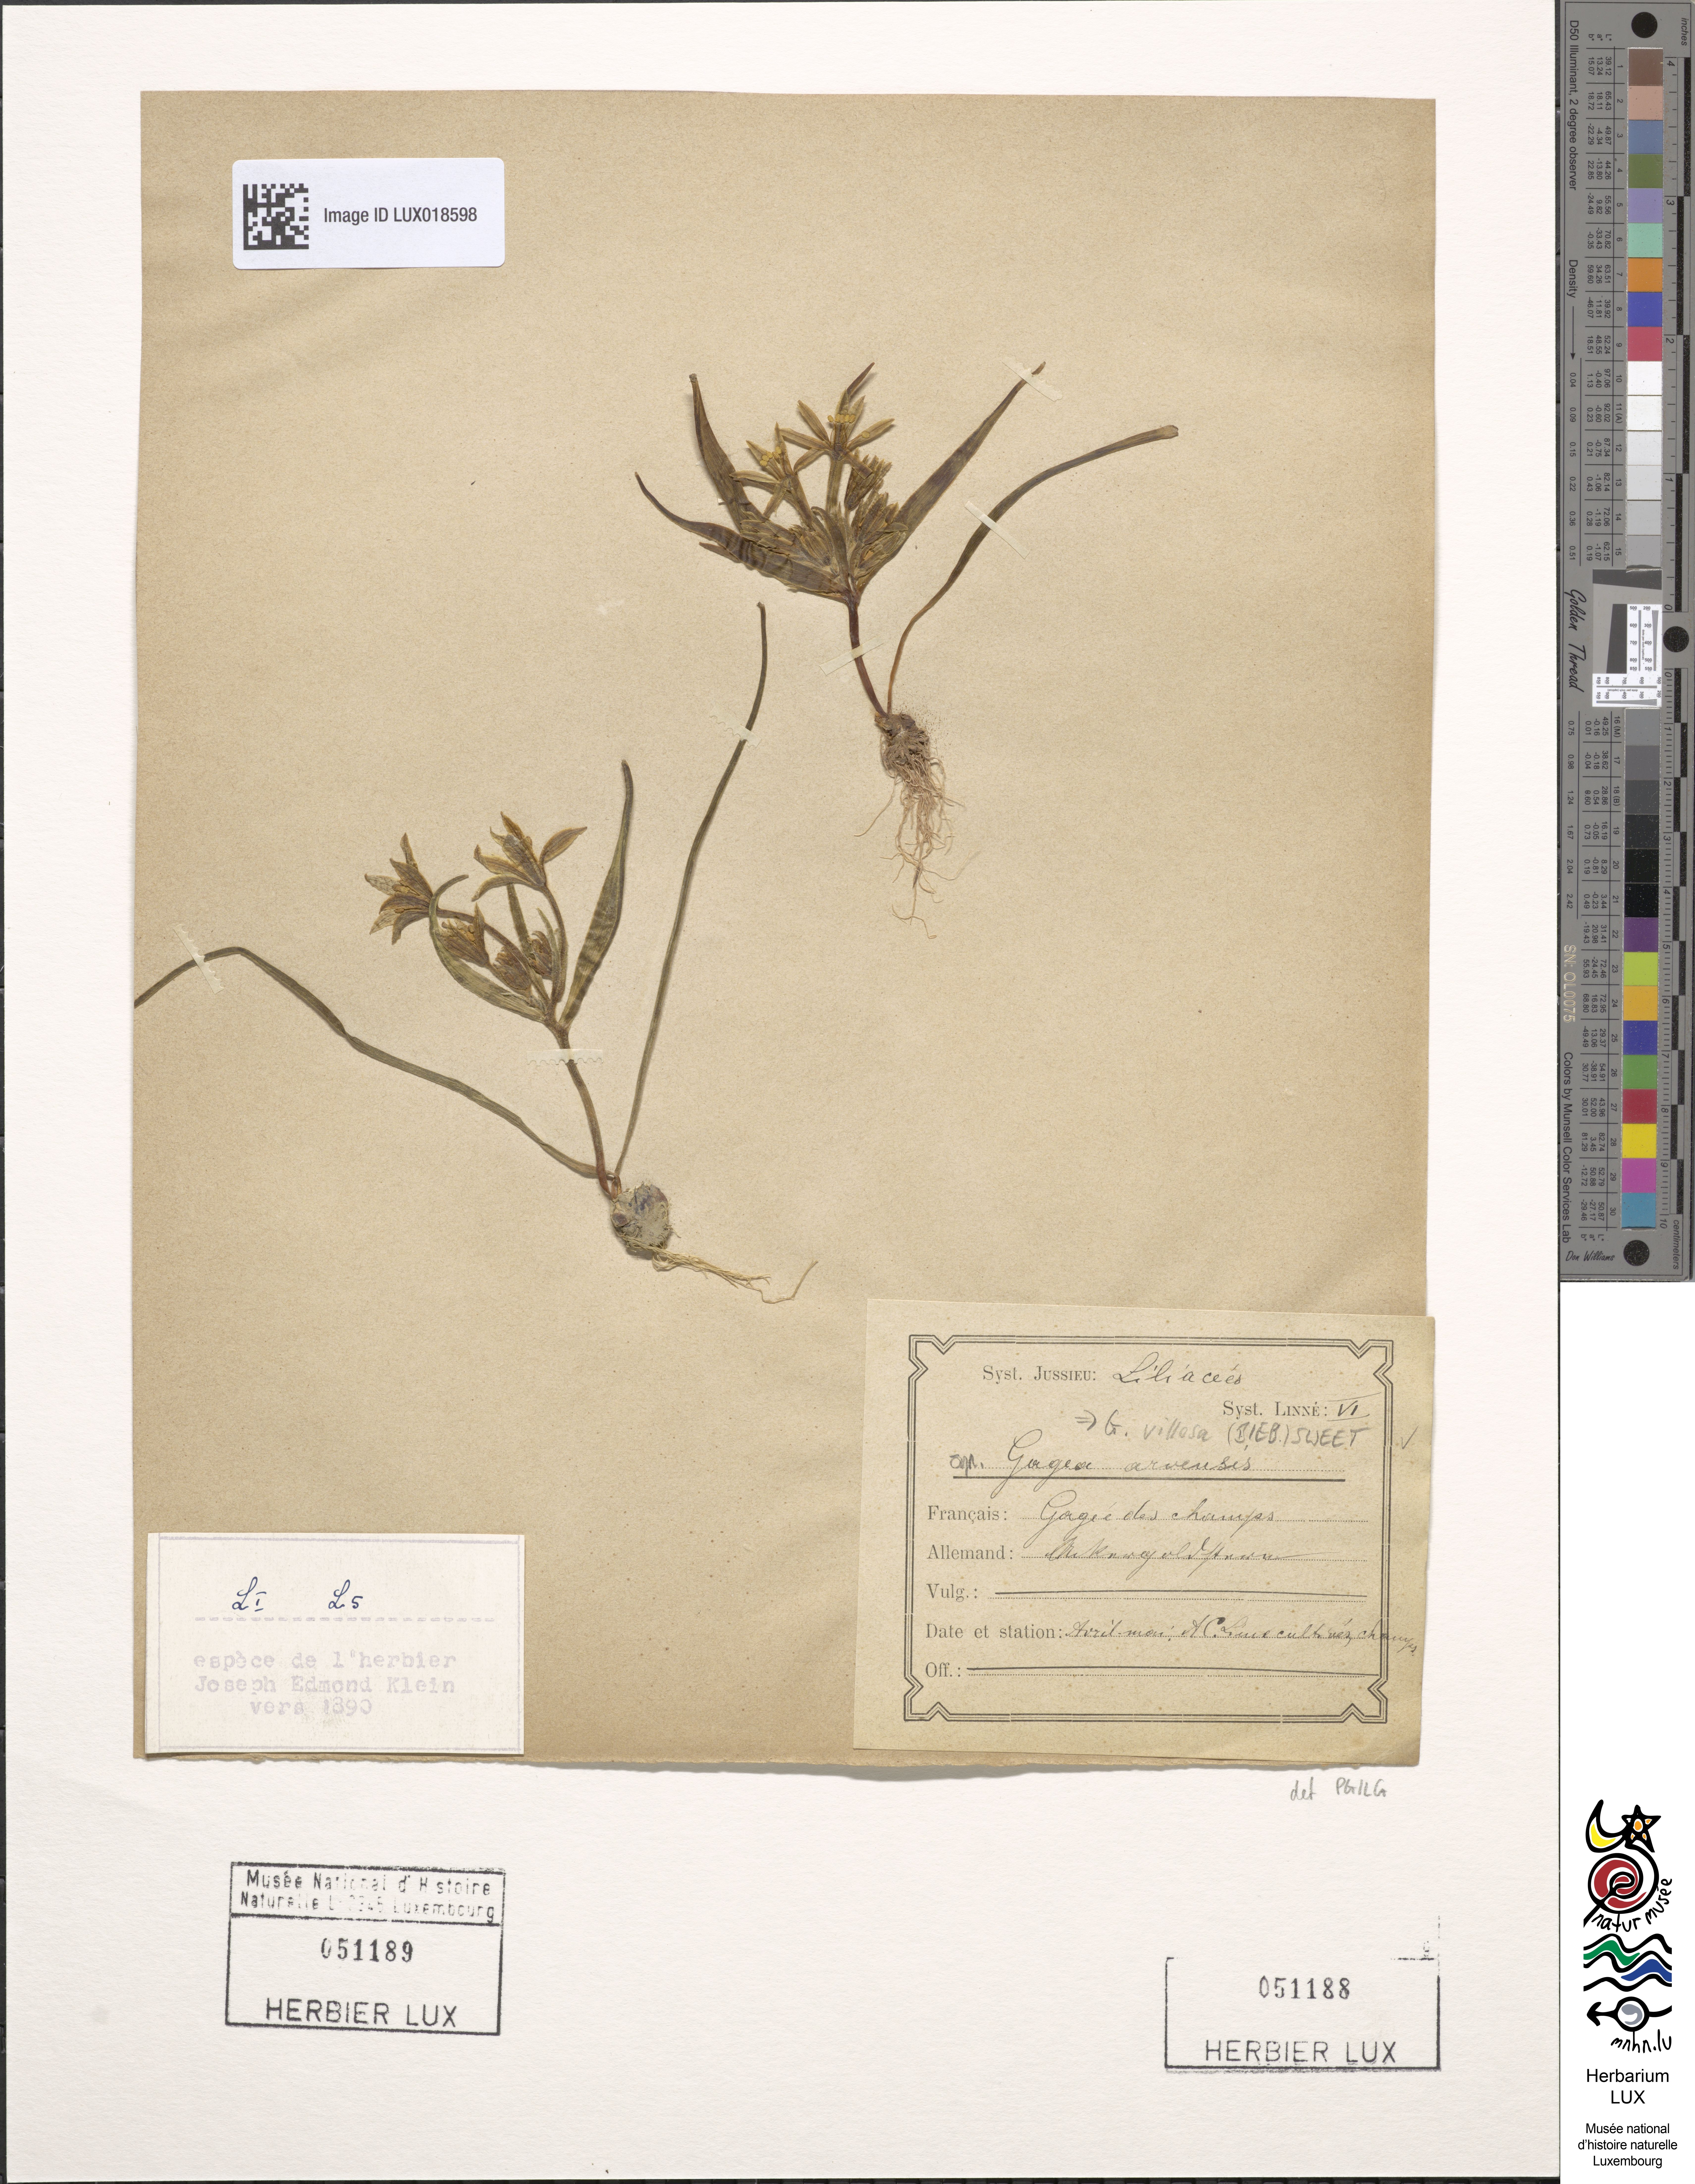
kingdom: Plantae
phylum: Tracheophyta
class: Liliopsida
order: Liliales
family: Liliaceae
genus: Gagea
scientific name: Gagea minima
